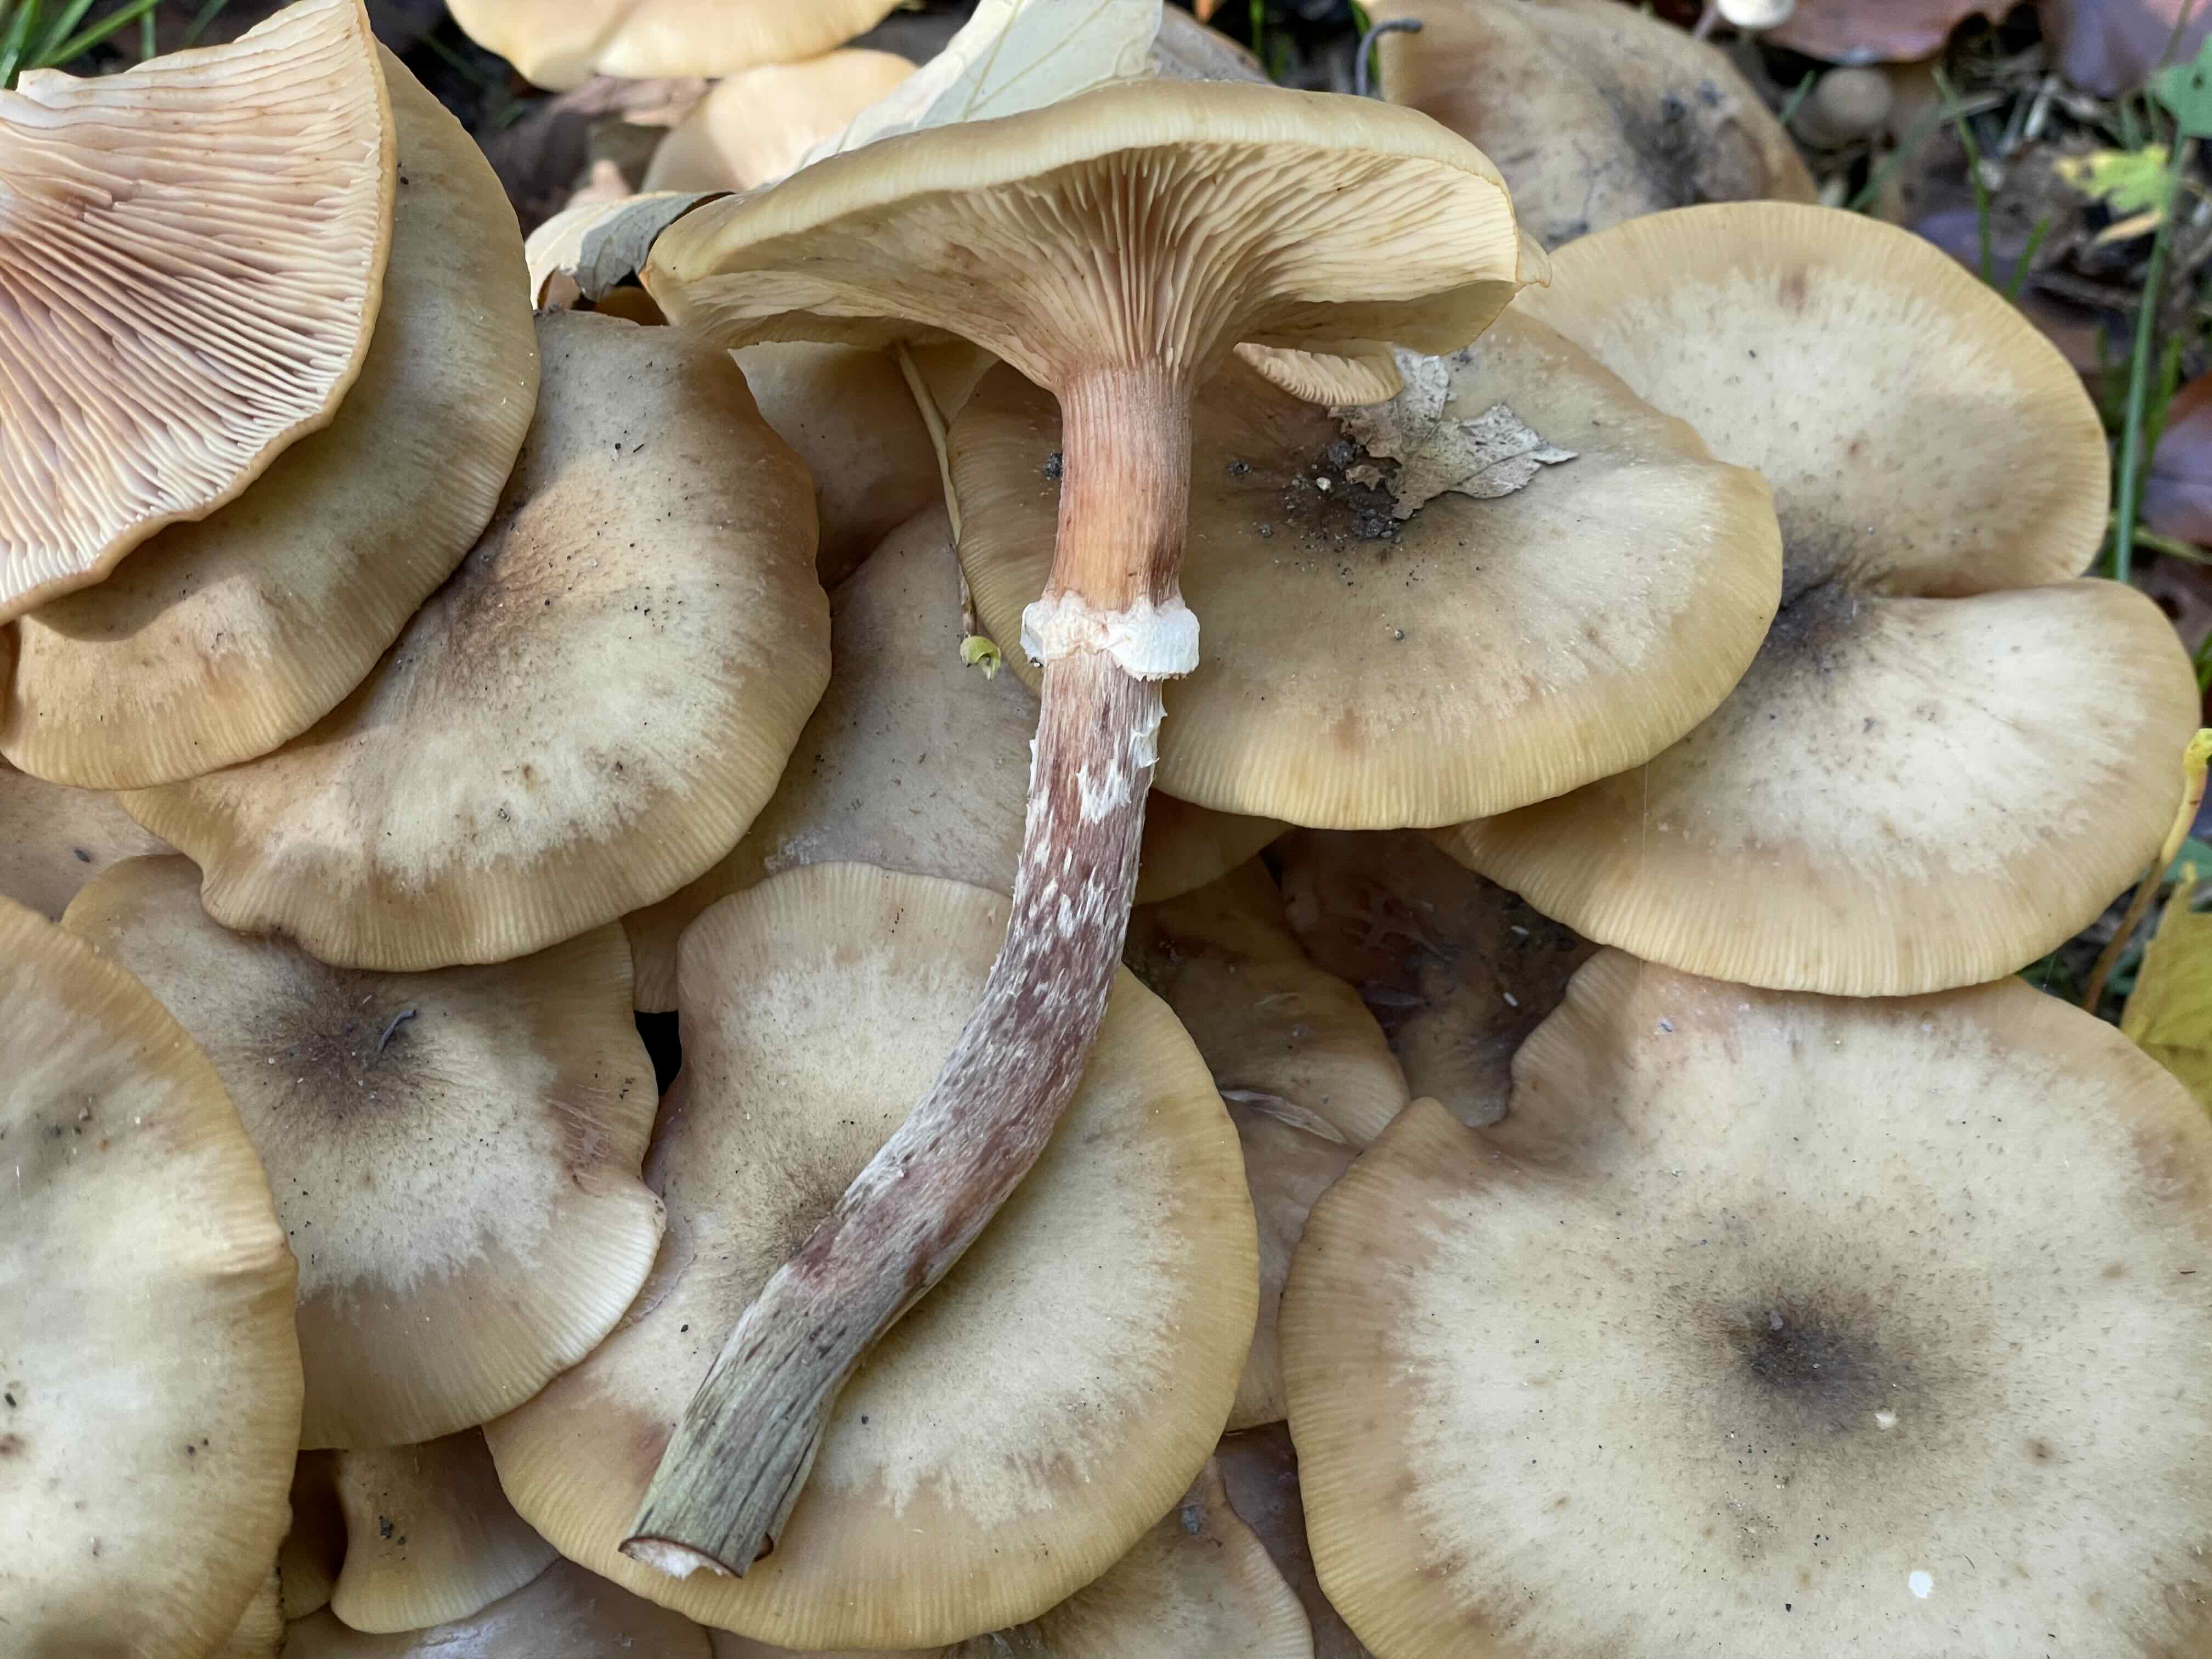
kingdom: Fungi
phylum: Basidiomycota
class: Agaricomycetes
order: Agaricales
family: Physalacriaceae
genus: Armillaria
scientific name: Armillaria mellea
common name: ægte honningsvamp
